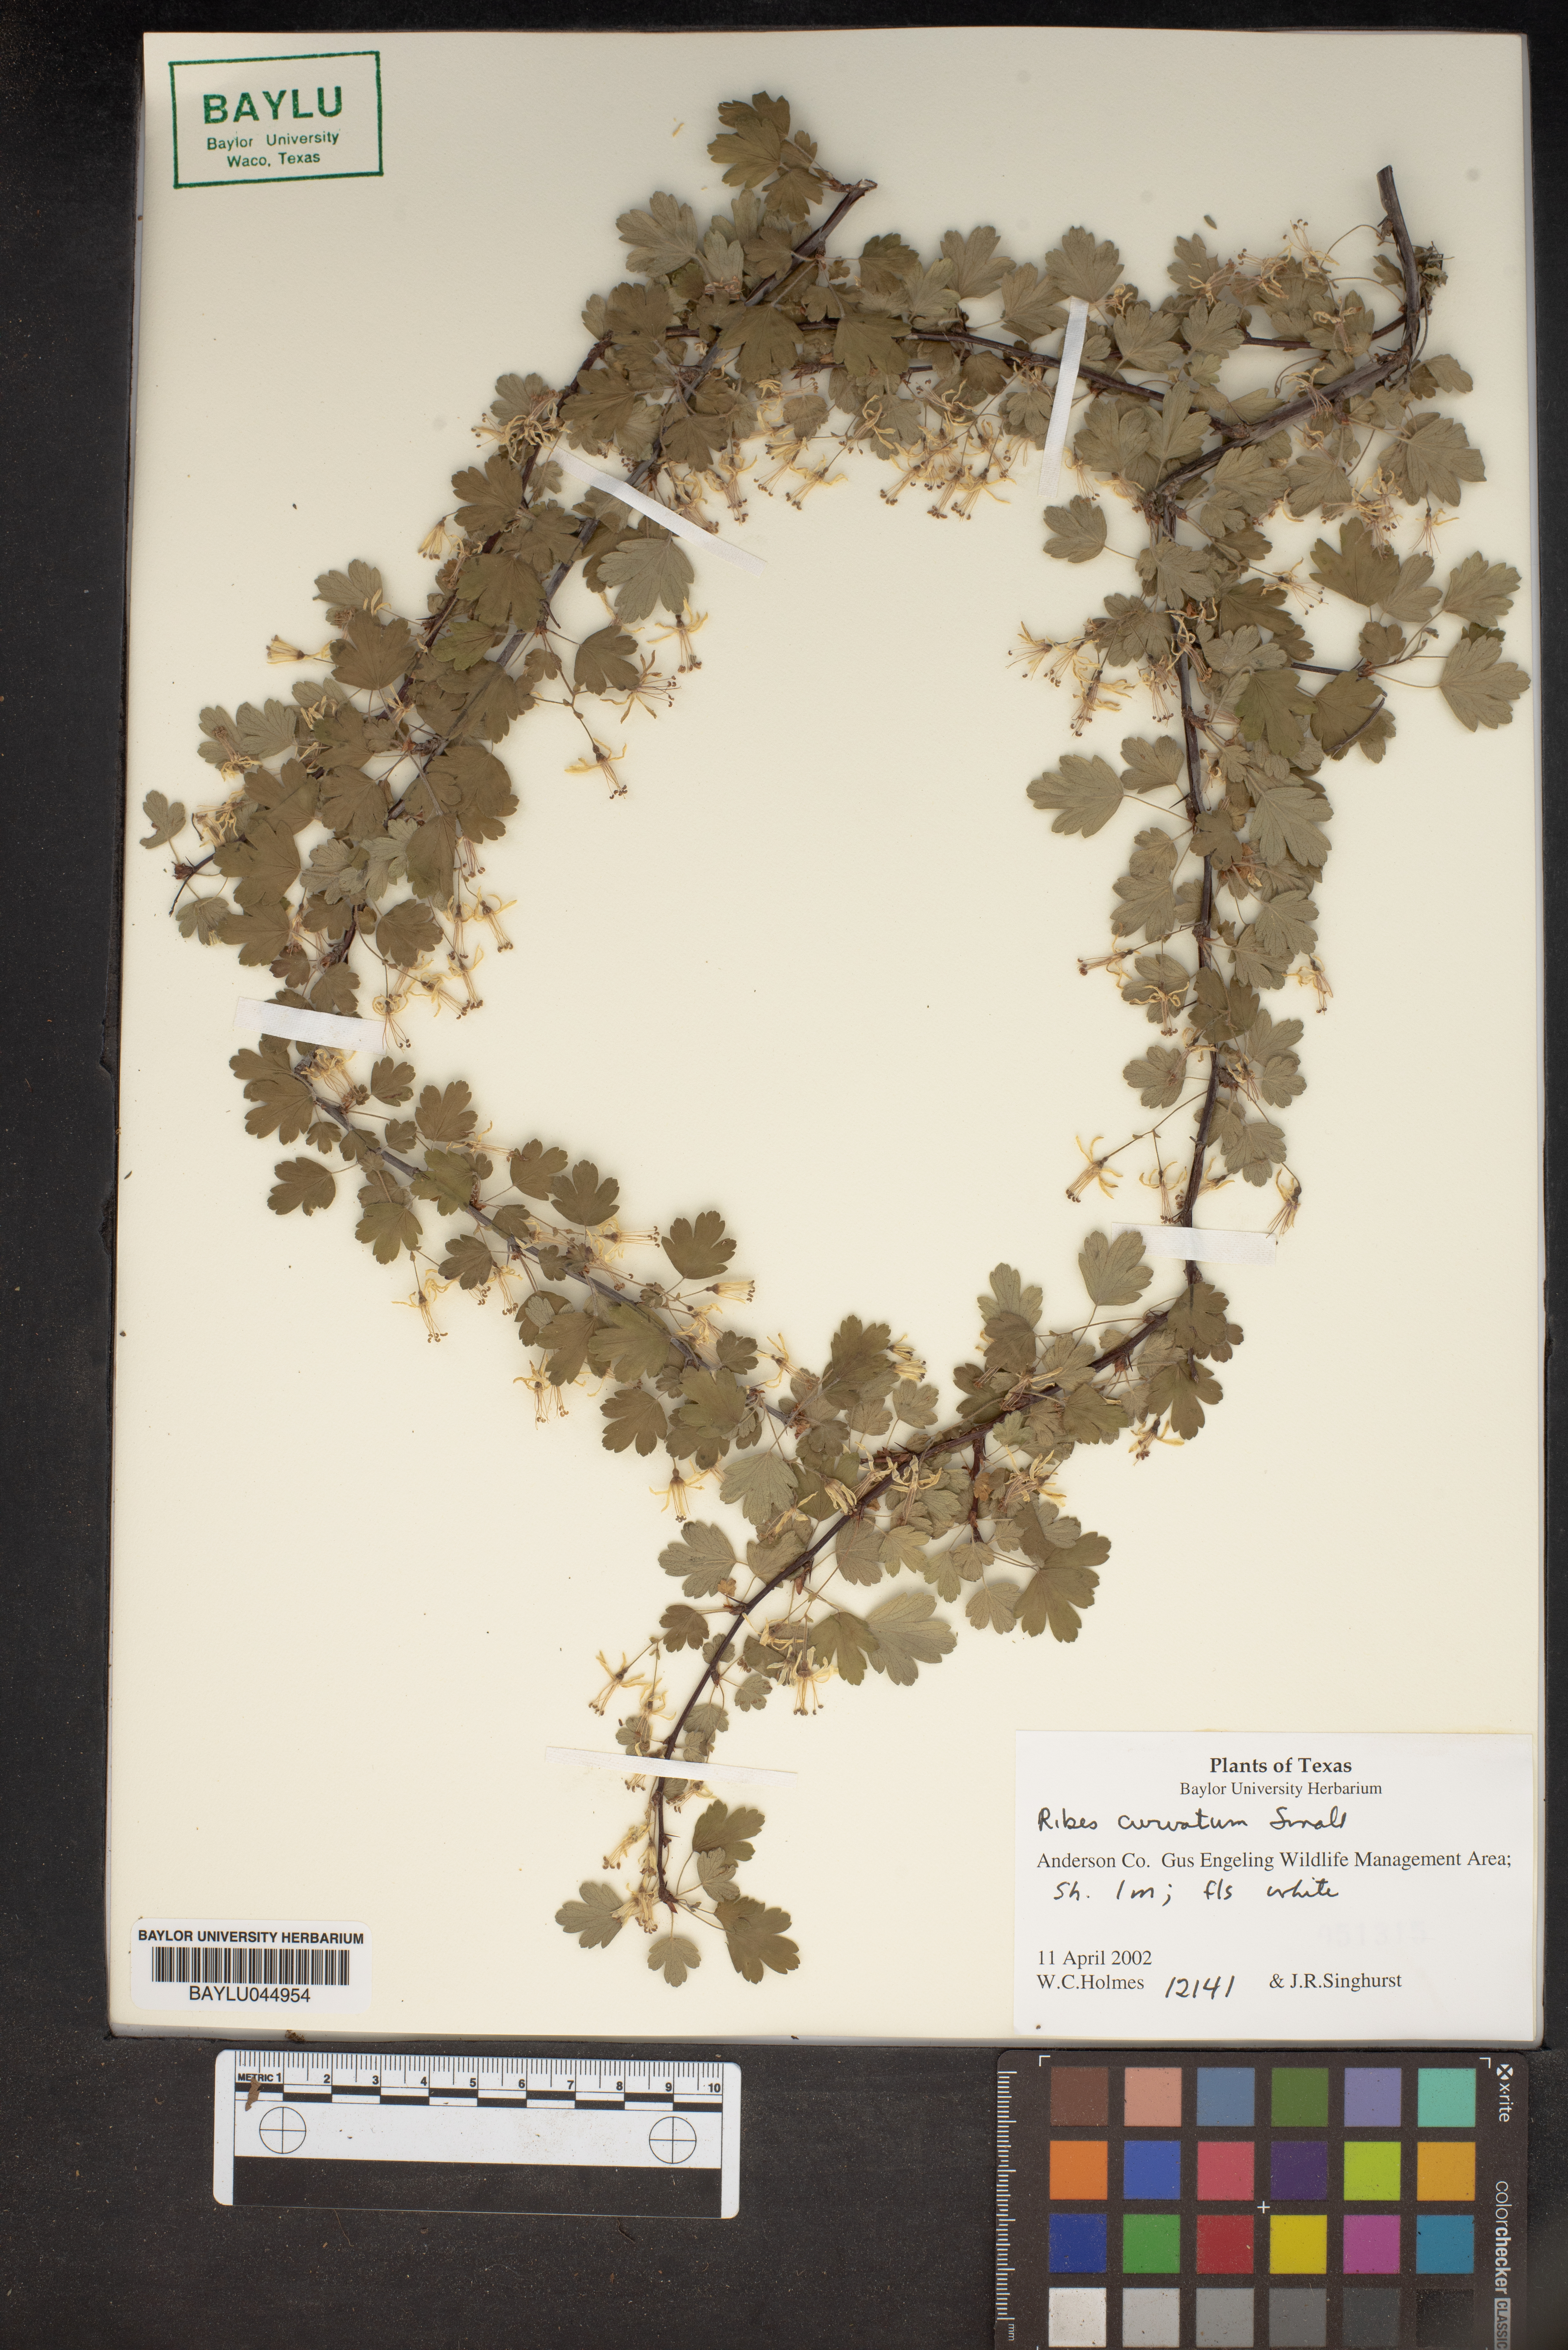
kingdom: Plantae
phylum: Tracheophyta
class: Magnoliopsida
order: Saxifragales
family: Grossulariaceae
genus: Ribes
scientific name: Ribes curvatum
